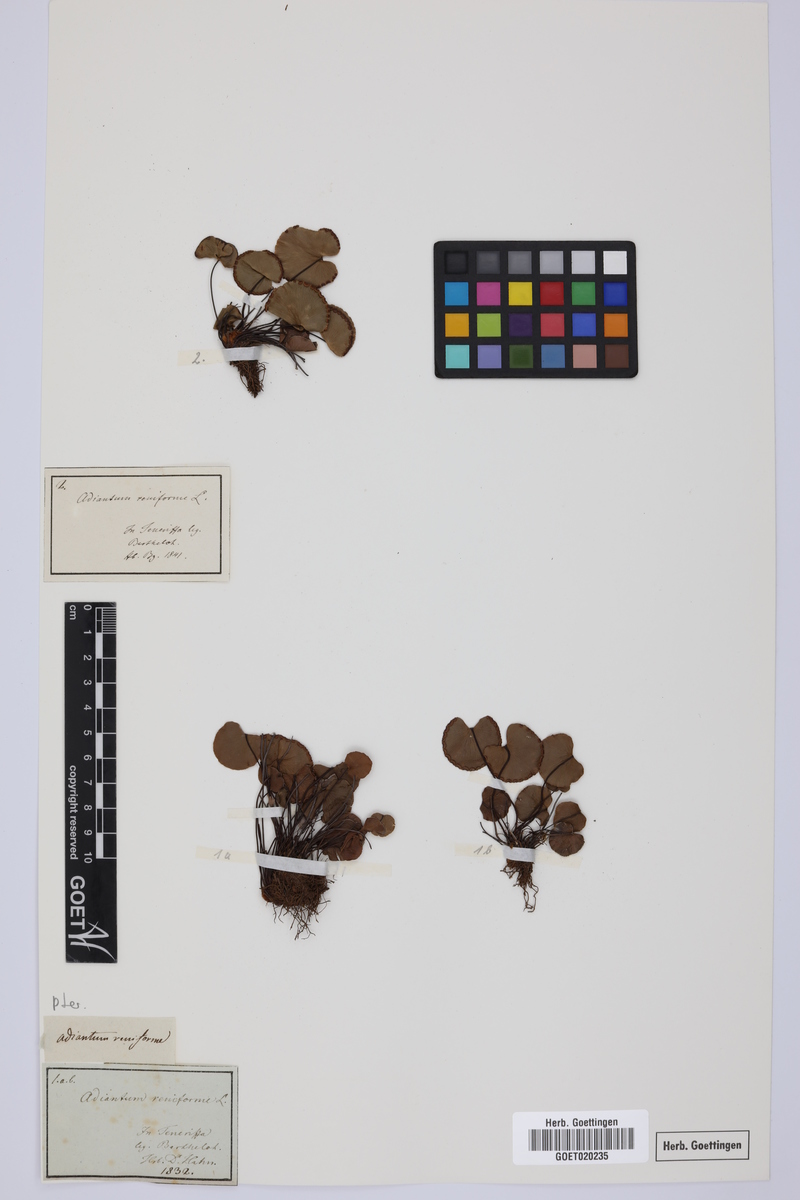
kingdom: Plantae
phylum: Tracheophyta
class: Polypodiopsida
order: Polypodiales
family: Pteridaceae
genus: Adiantum
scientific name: Adiantum reniforme
